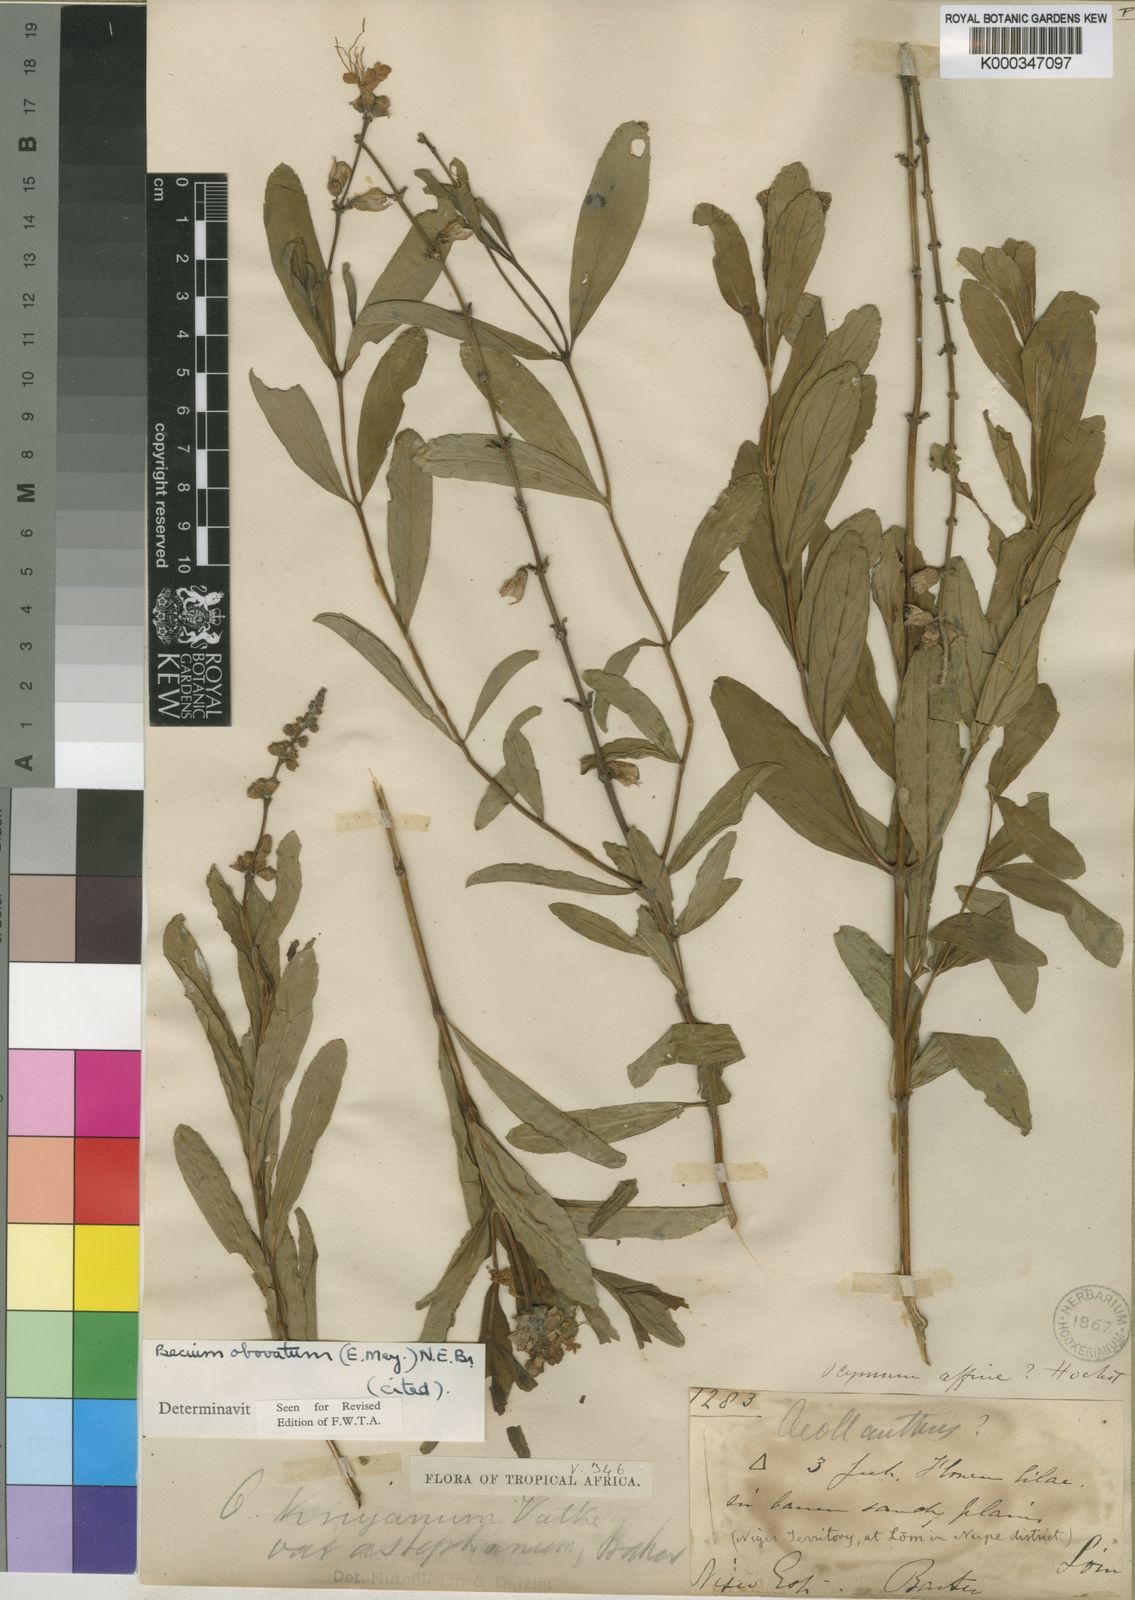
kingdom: Plantae
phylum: Tracheophyta
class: Magnoliopsida
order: Lamiales
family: Lamiaceae
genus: Ocimum
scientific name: Ocimum obovatum
